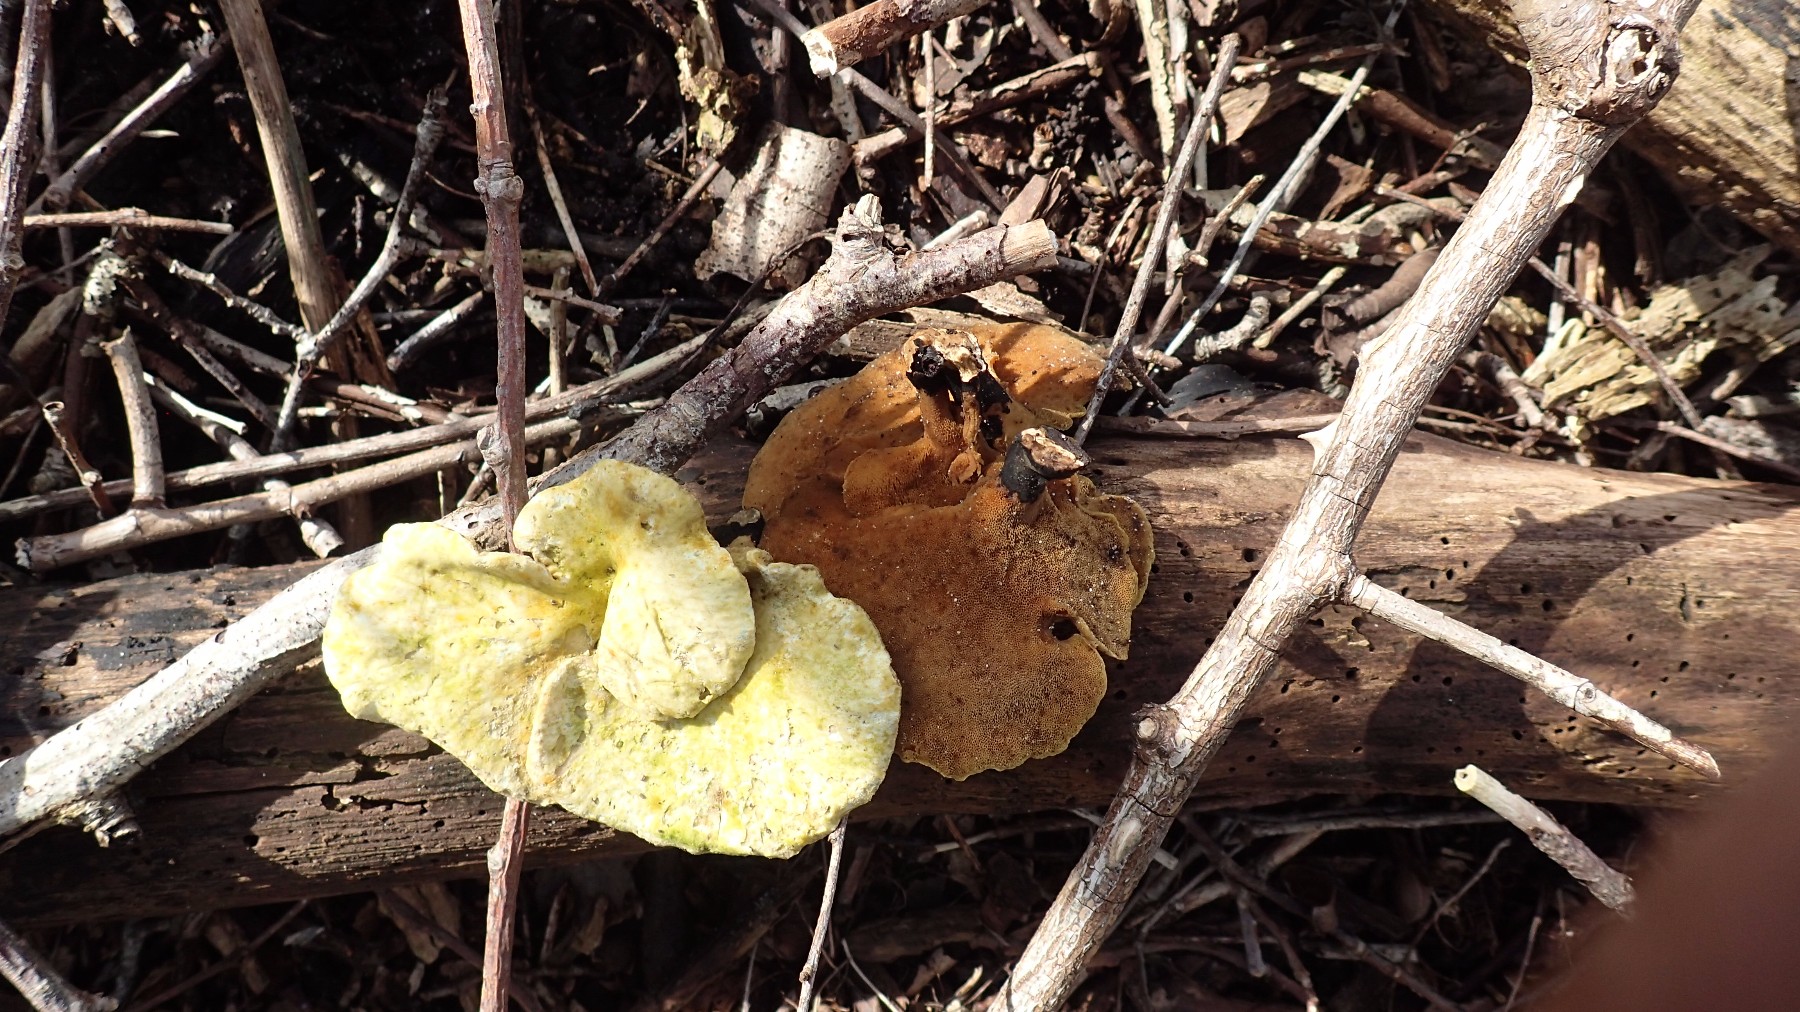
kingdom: Fungi
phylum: Basidiomycota
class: Agaricomycetes
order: Polyporales
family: Polyporaceae
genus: Cerioporus
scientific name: Cerioporus varius
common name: foranderlig stilkporesvamp
